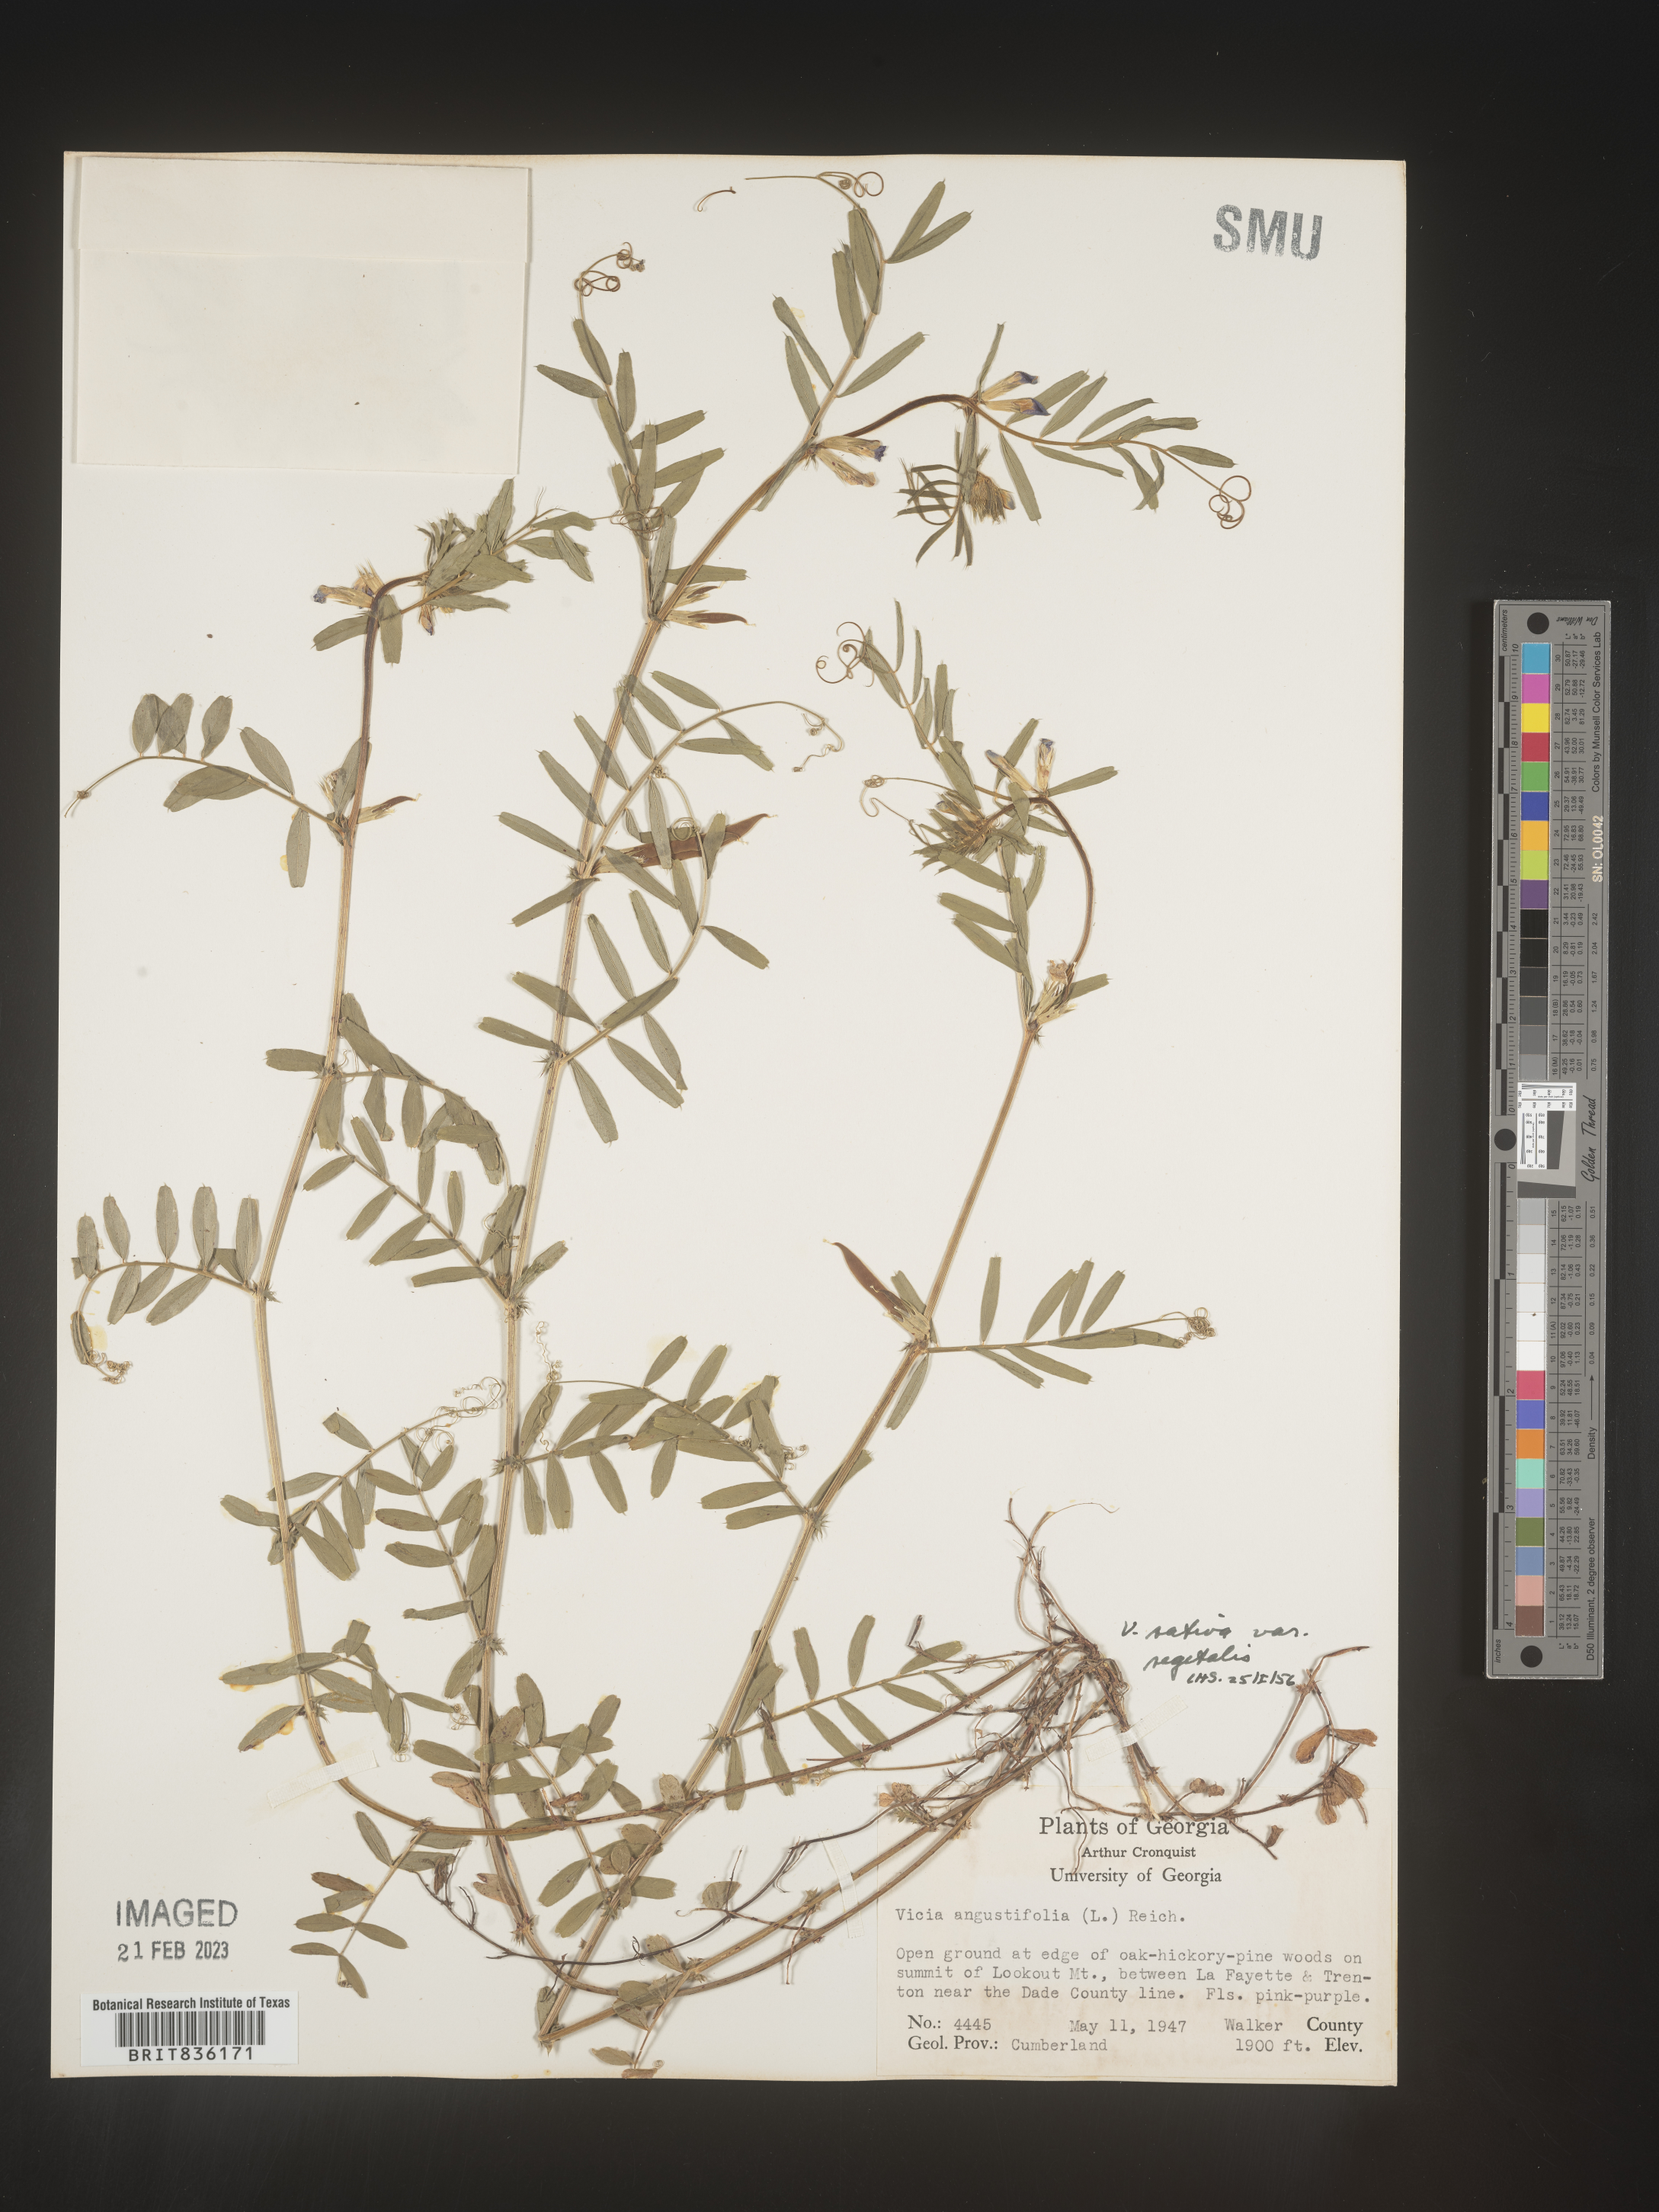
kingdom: Plantae
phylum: Tracheophyta
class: Magnoliopsida
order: Fabales
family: Fabaceae
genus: Vicia
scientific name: Vicia sativa
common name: Garden vetch
